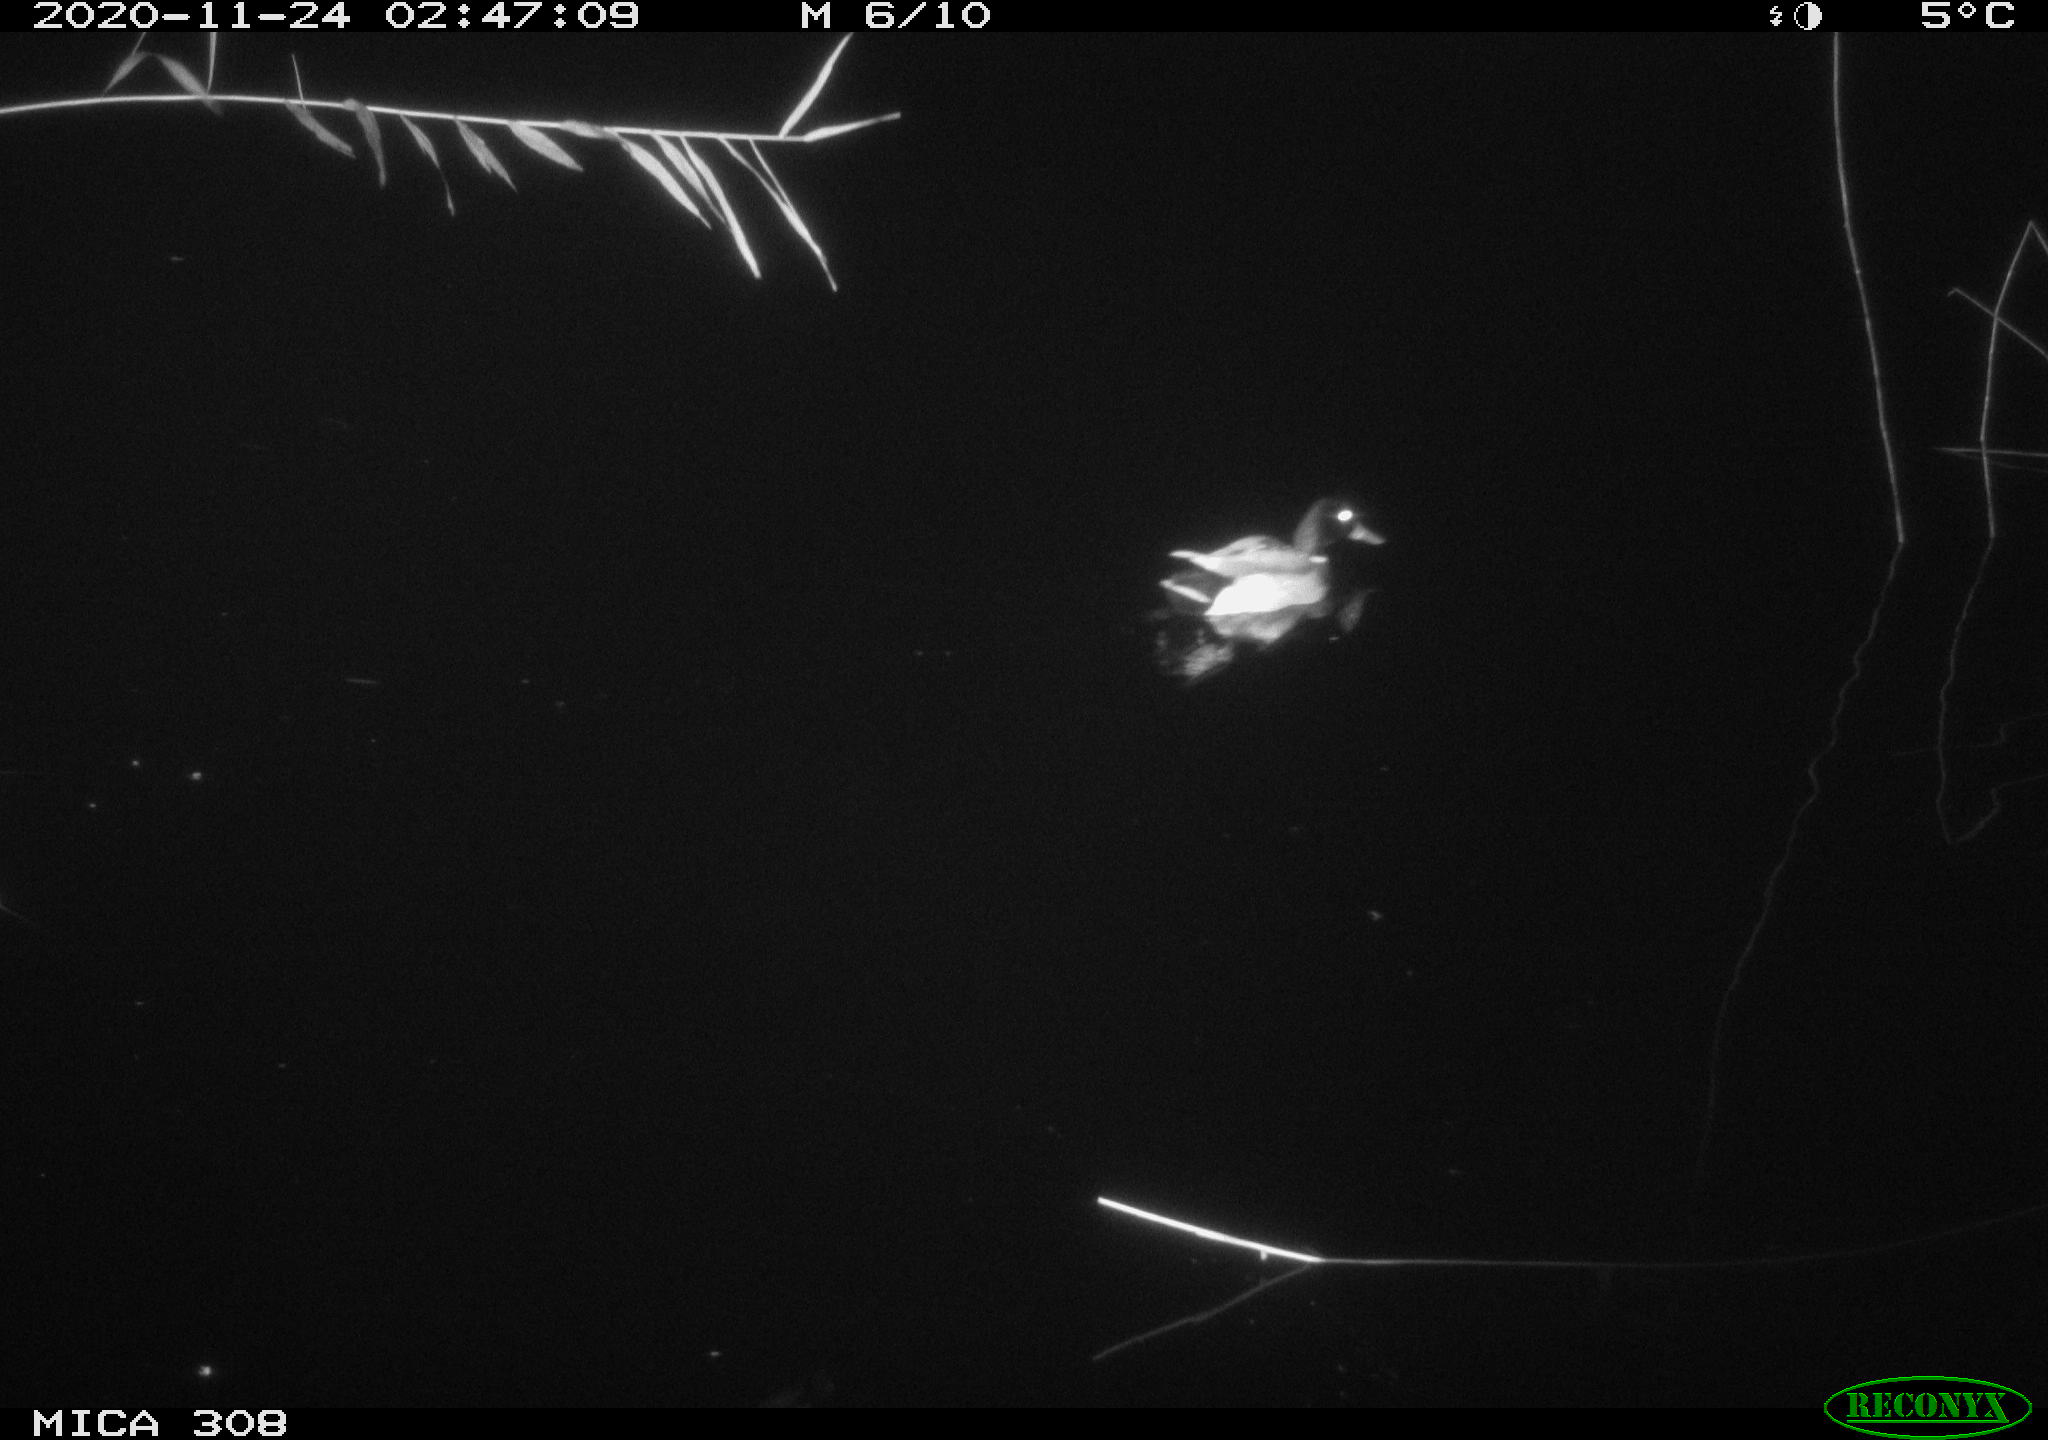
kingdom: Animalia
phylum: Chordata
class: Aves
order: Anseriformes
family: Anatidae
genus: Anas
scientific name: Anas platyrhynchos
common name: Mallard
